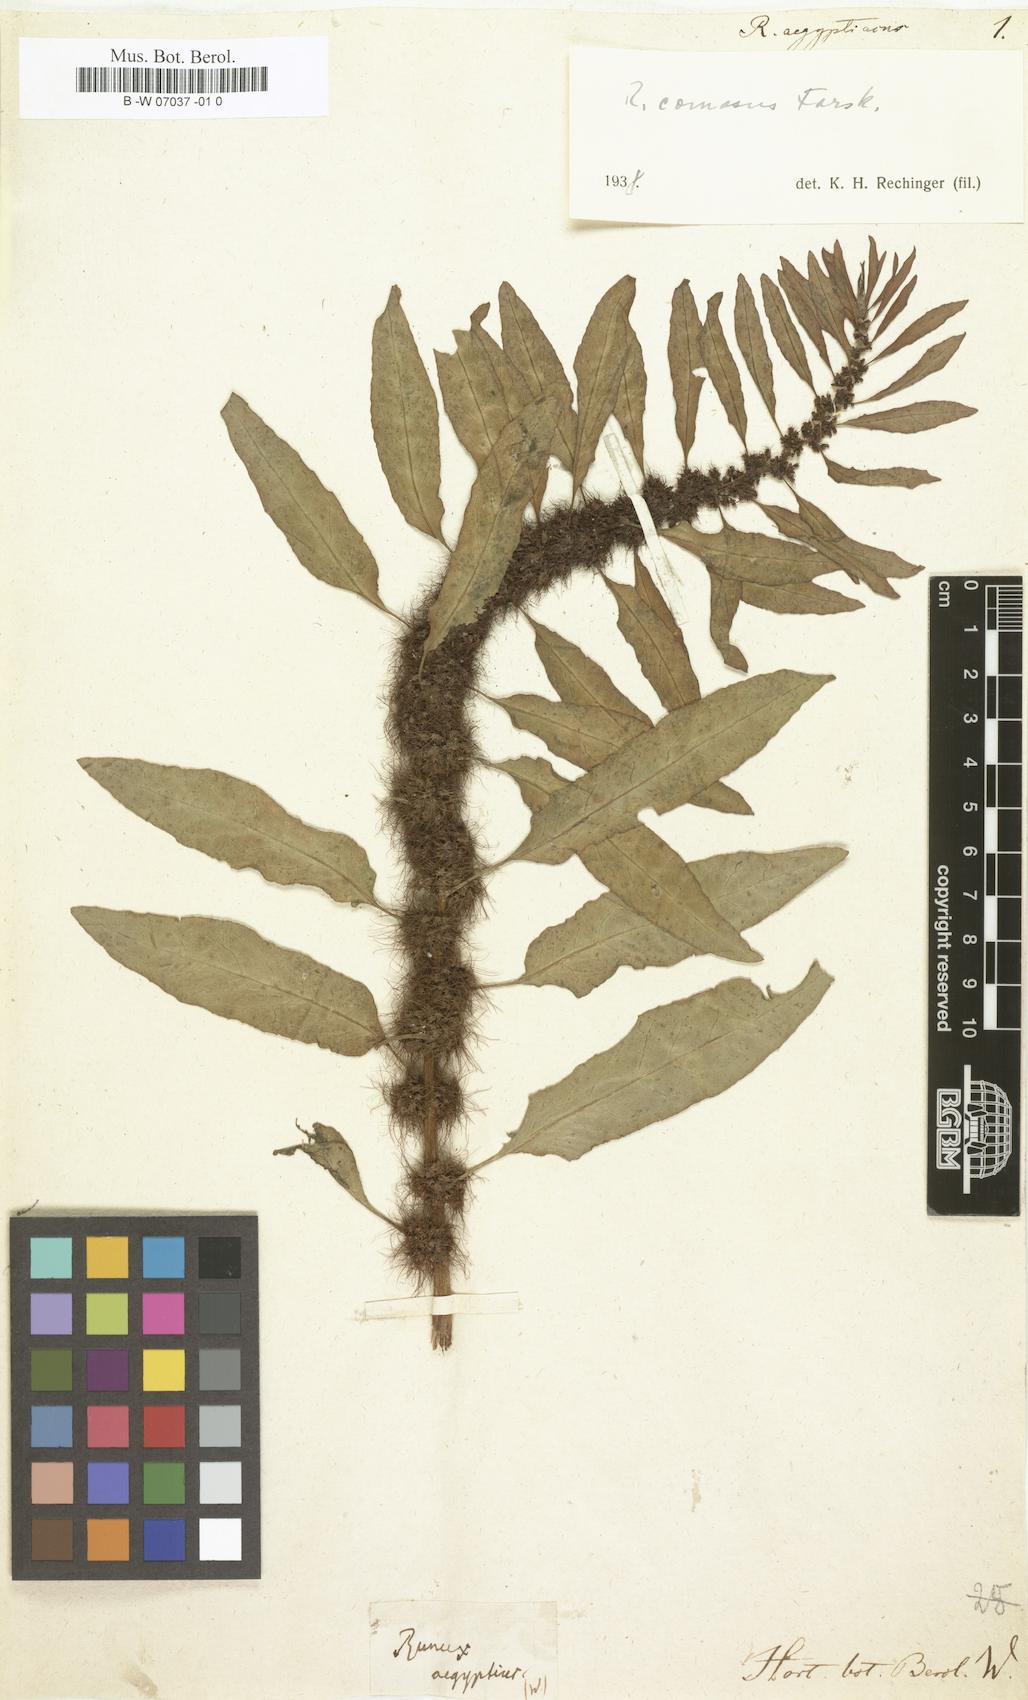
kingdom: Plantae
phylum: Tracheophyta
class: Magnoliopsida
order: Caryophyllales
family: Polygonaceae
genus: Rumex
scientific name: Rumex aegyptiacus
